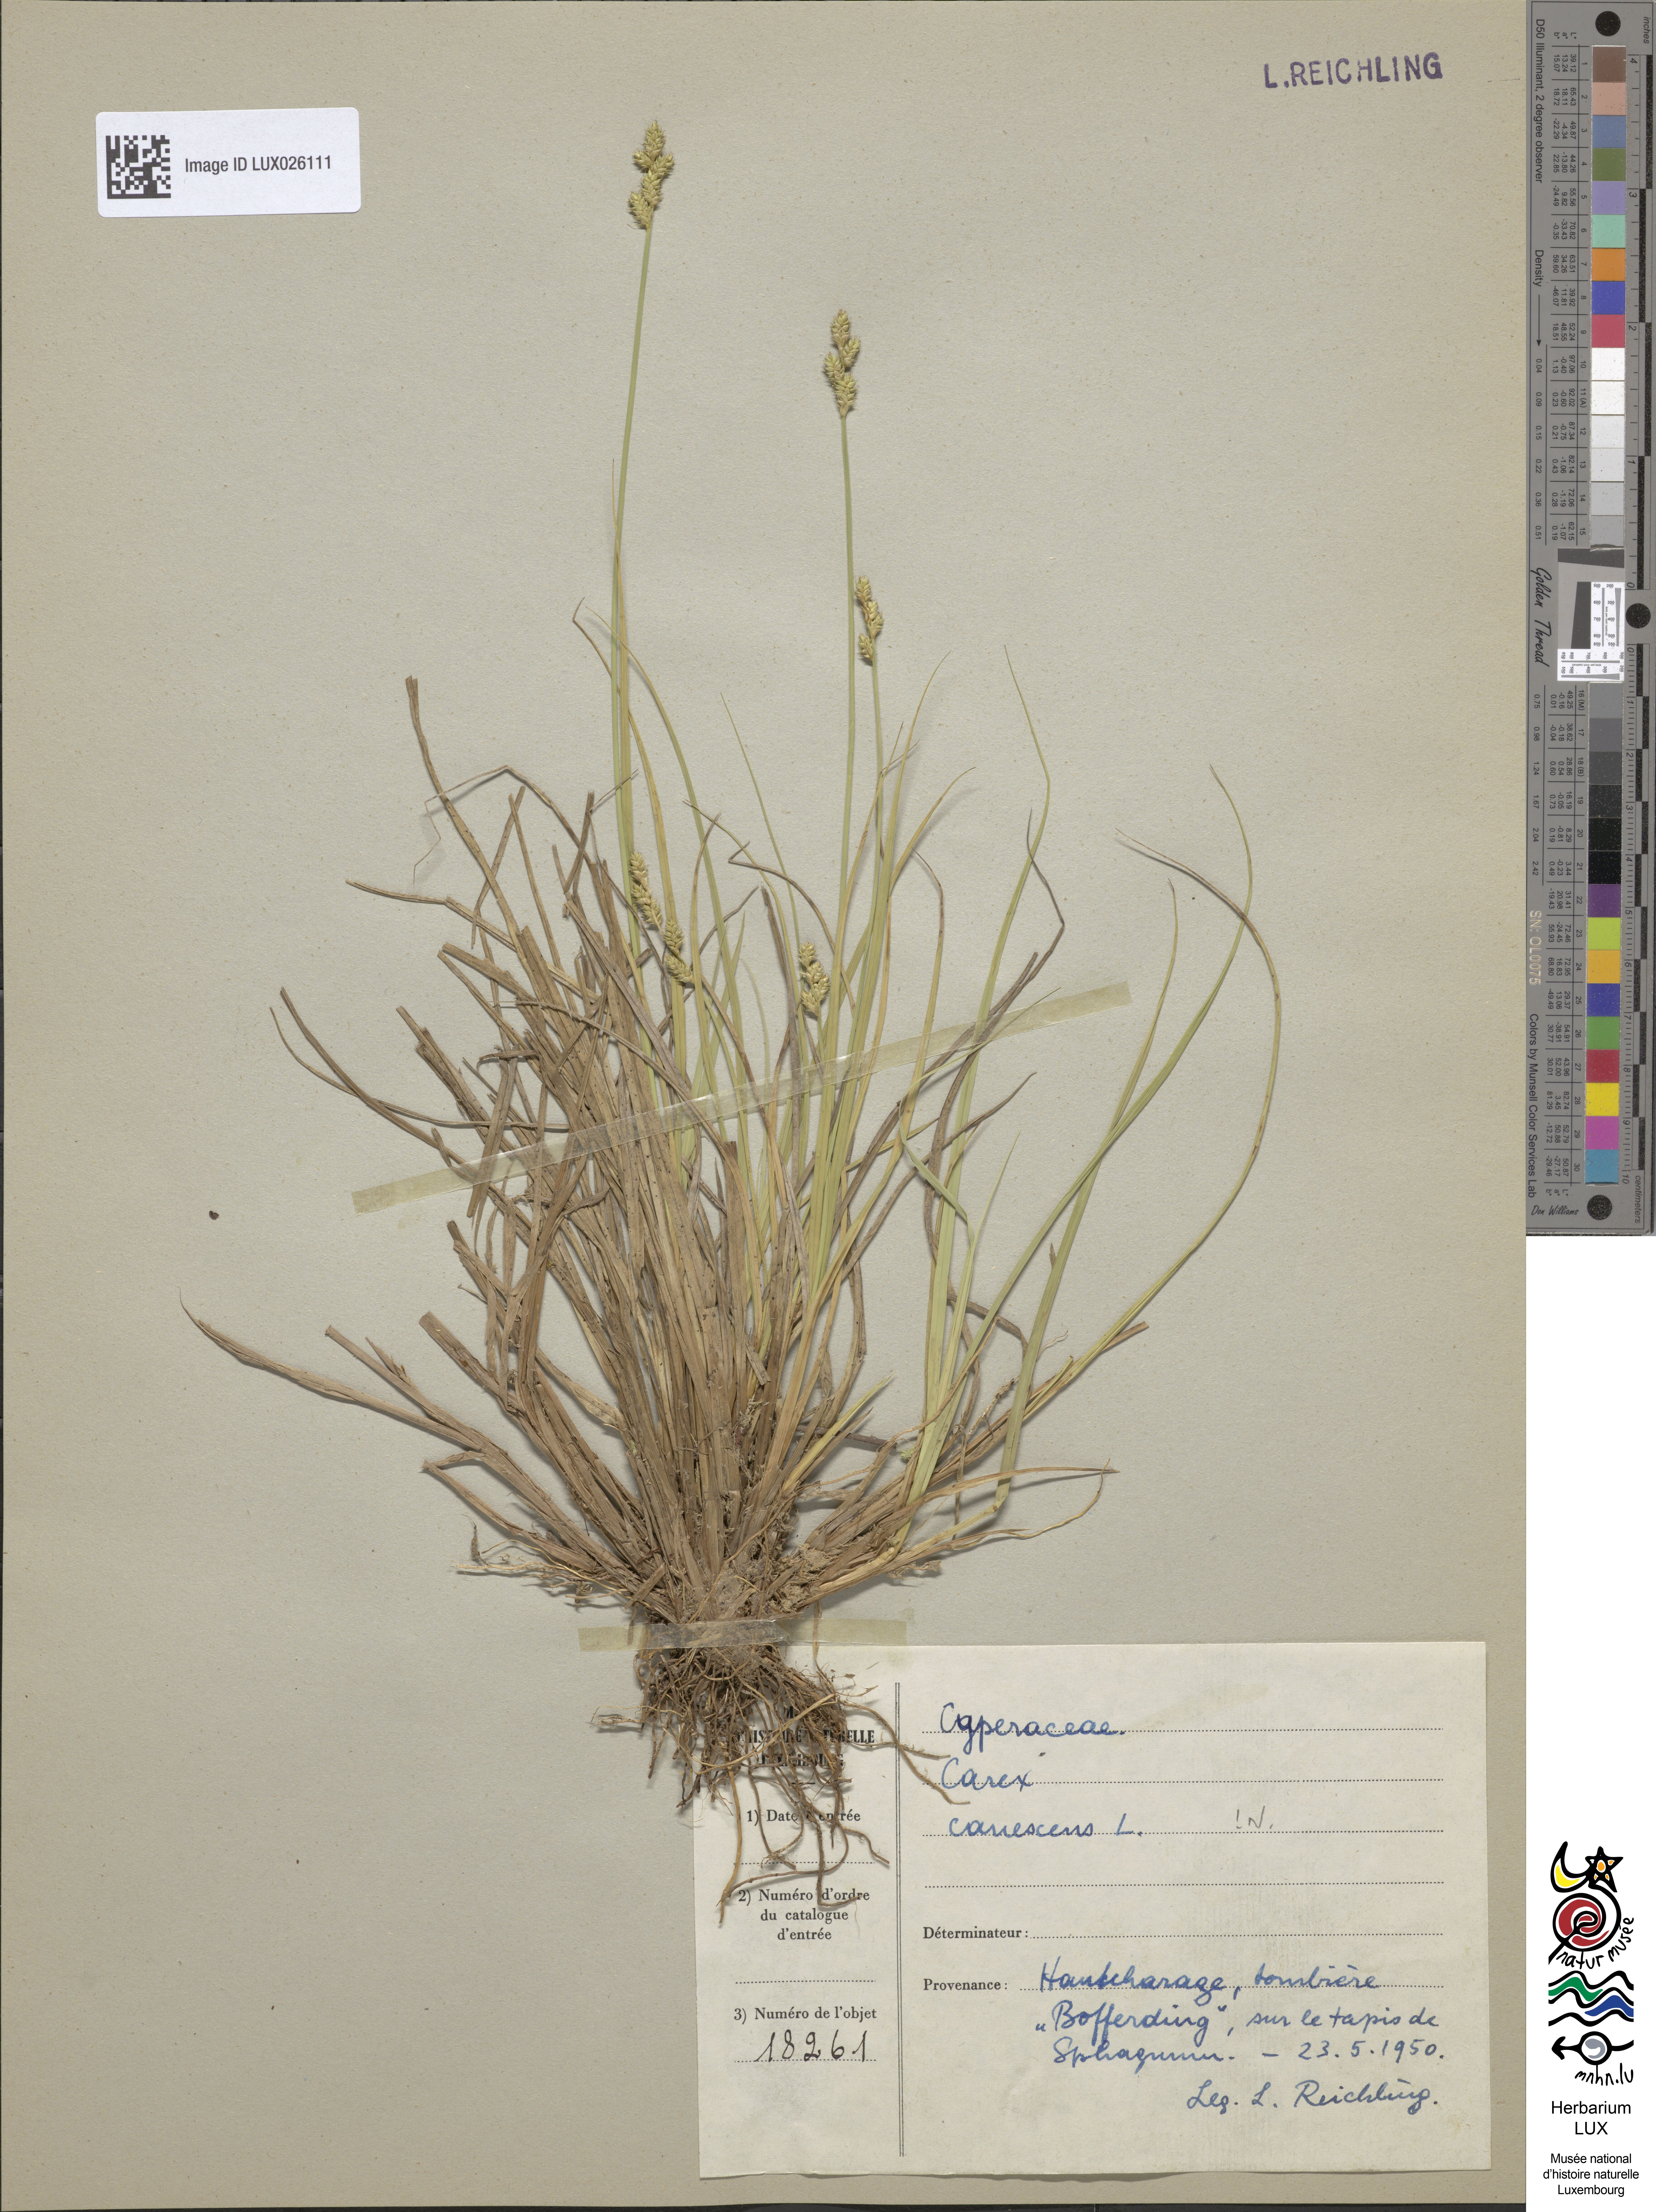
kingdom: Plantae
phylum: Tracheophyta
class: Liliopsida
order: Poales
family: Cyperaceae
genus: Carex
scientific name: Carex canescens
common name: White sedge
